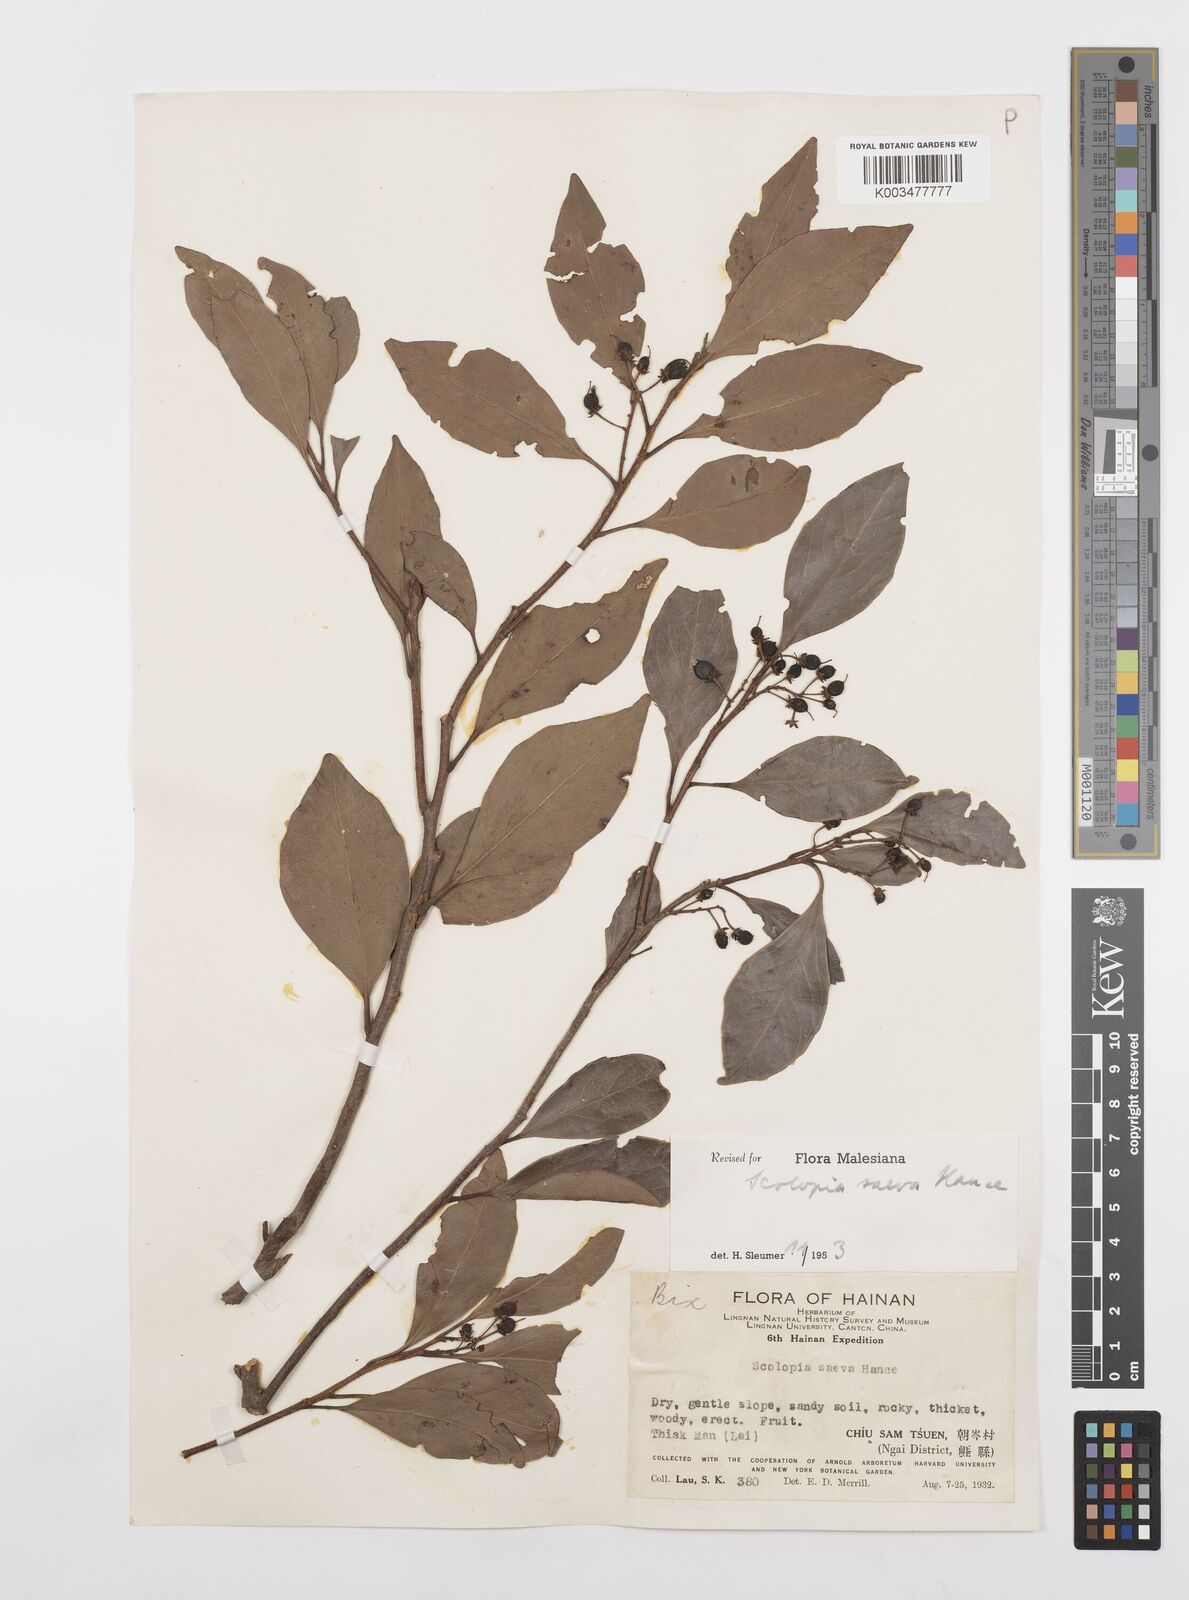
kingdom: Plantae
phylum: Tracheophyta
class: Magnoliopsida
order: Malpighiales
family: Salicaceae
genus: Scolopia
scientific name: Scolopia saeva
